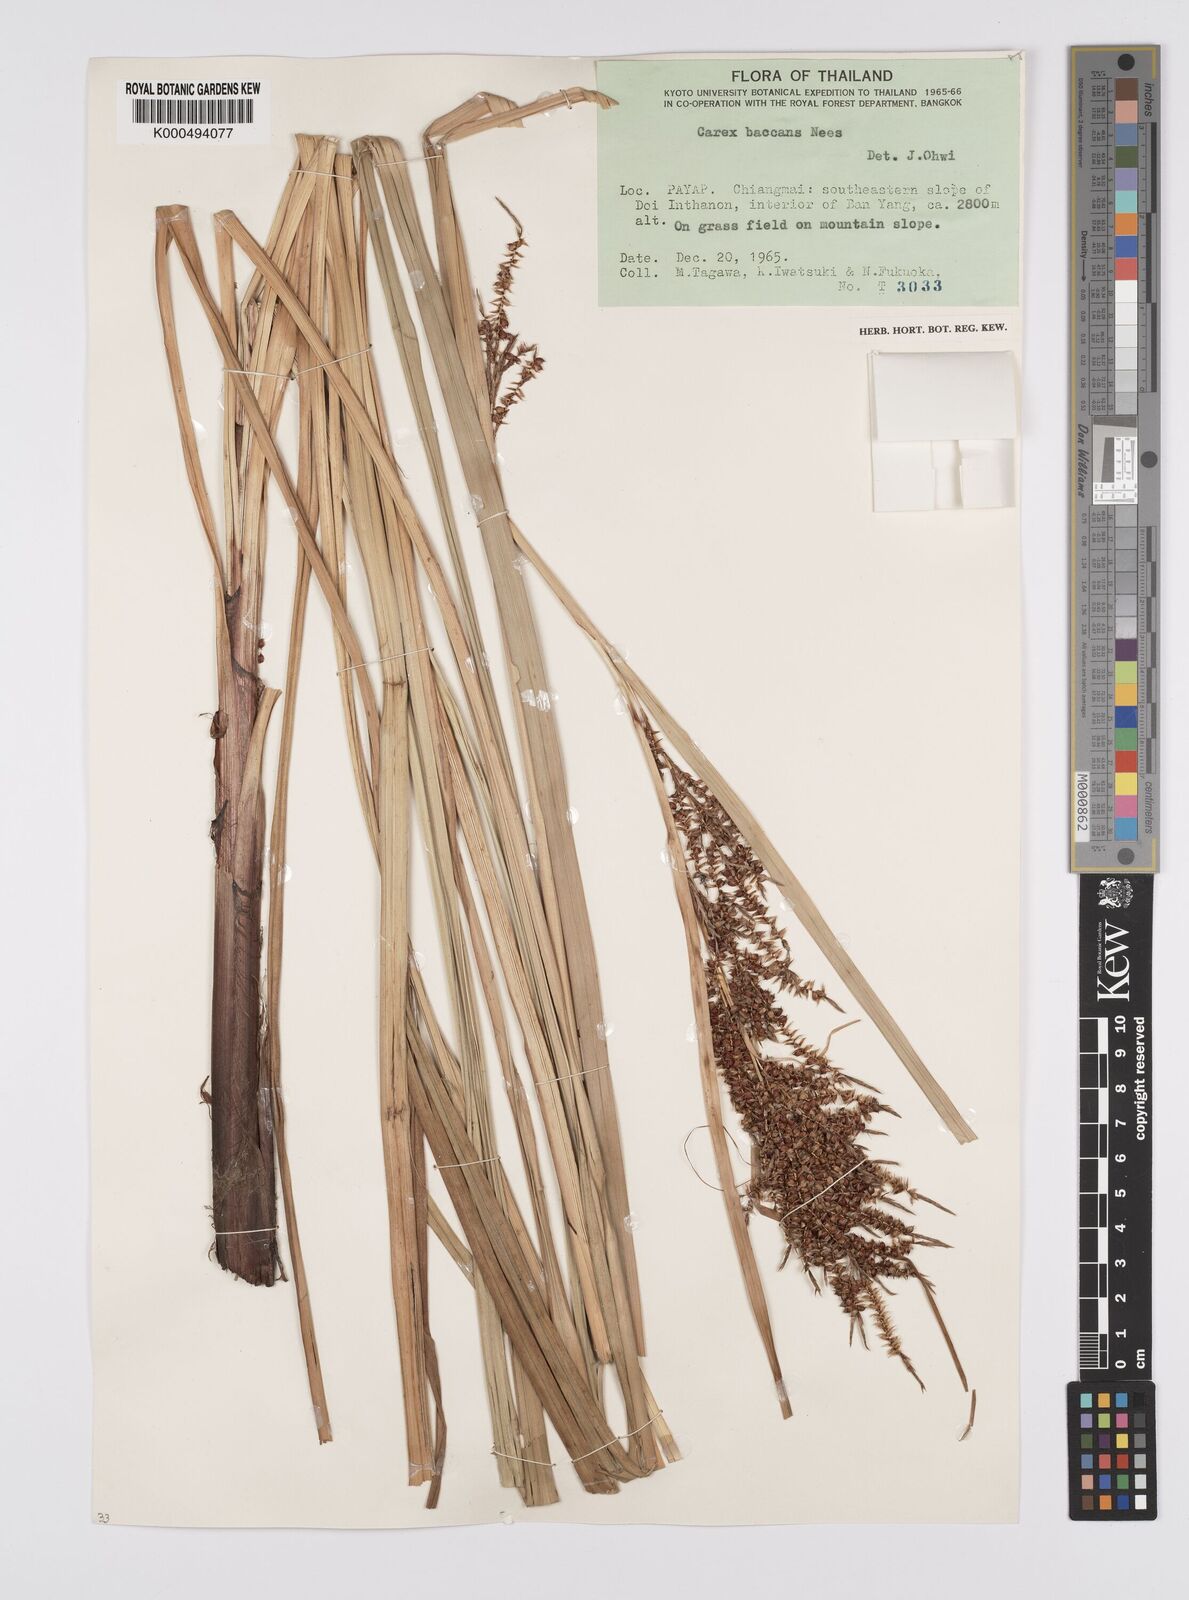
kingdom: Plantae
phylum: Tracheophyta
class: Liliopsida
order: Poales
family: Cyperaceae
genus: Carex
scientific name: Carex baccans
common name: Crimson seeded sedge
